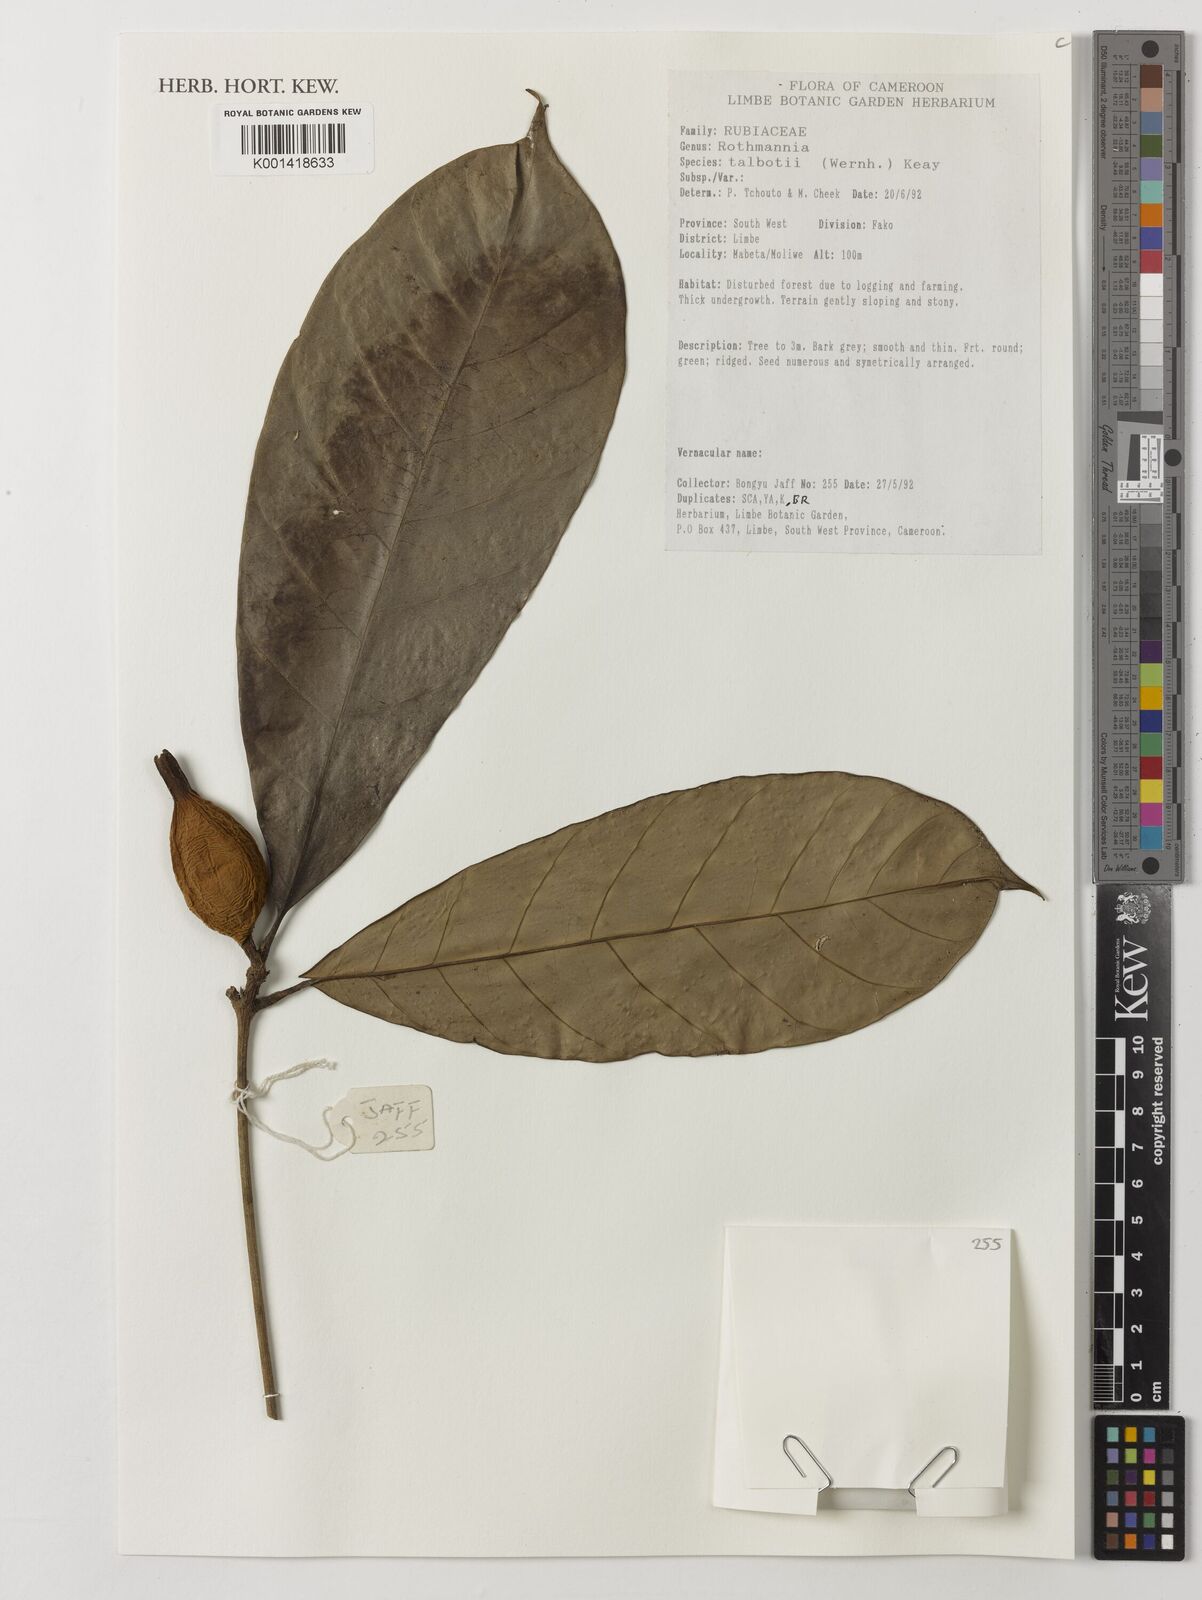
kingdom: Plantae
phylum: Tracheophyta
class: Magnoliopsida
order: Gentianales
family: Rubiaceae
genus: Rothmannia
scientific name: Rothmannia talbotii
